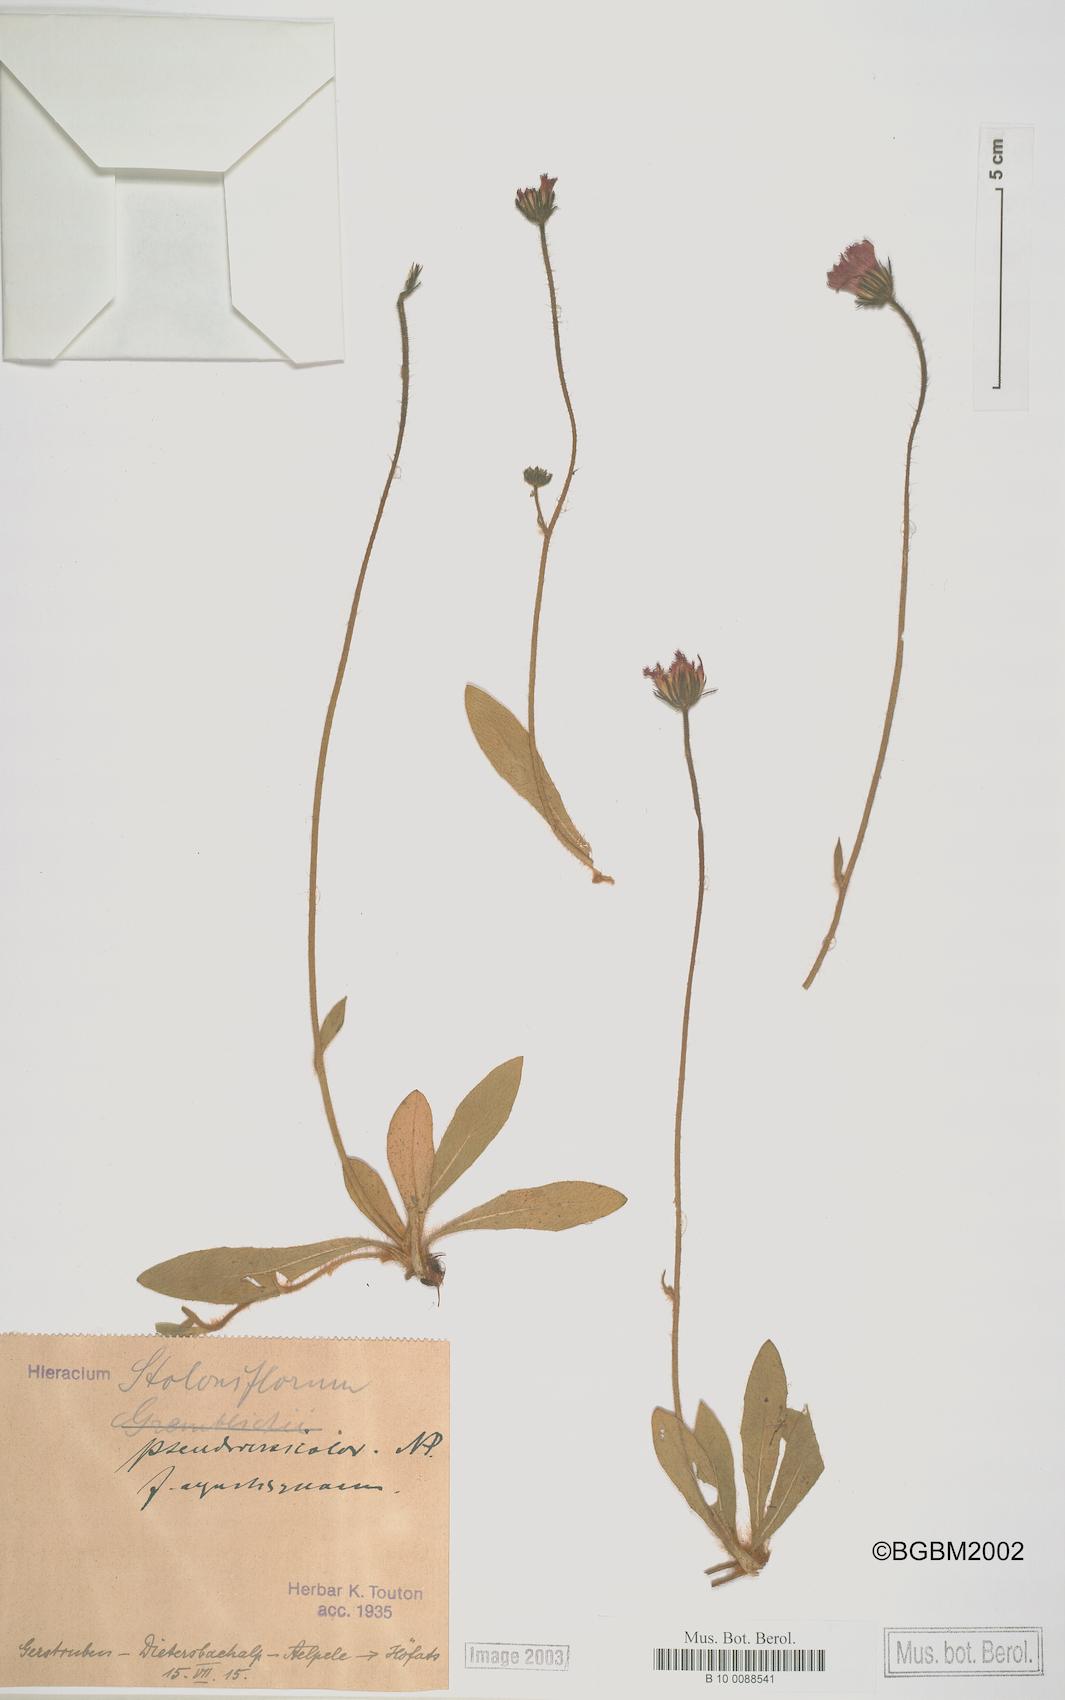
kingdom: Plantae
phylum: Tracheophyta
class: Magnoliopsida
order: Asterales
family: Asteraceae
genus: Hieracium
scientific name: Hieracium stoloniflorum
